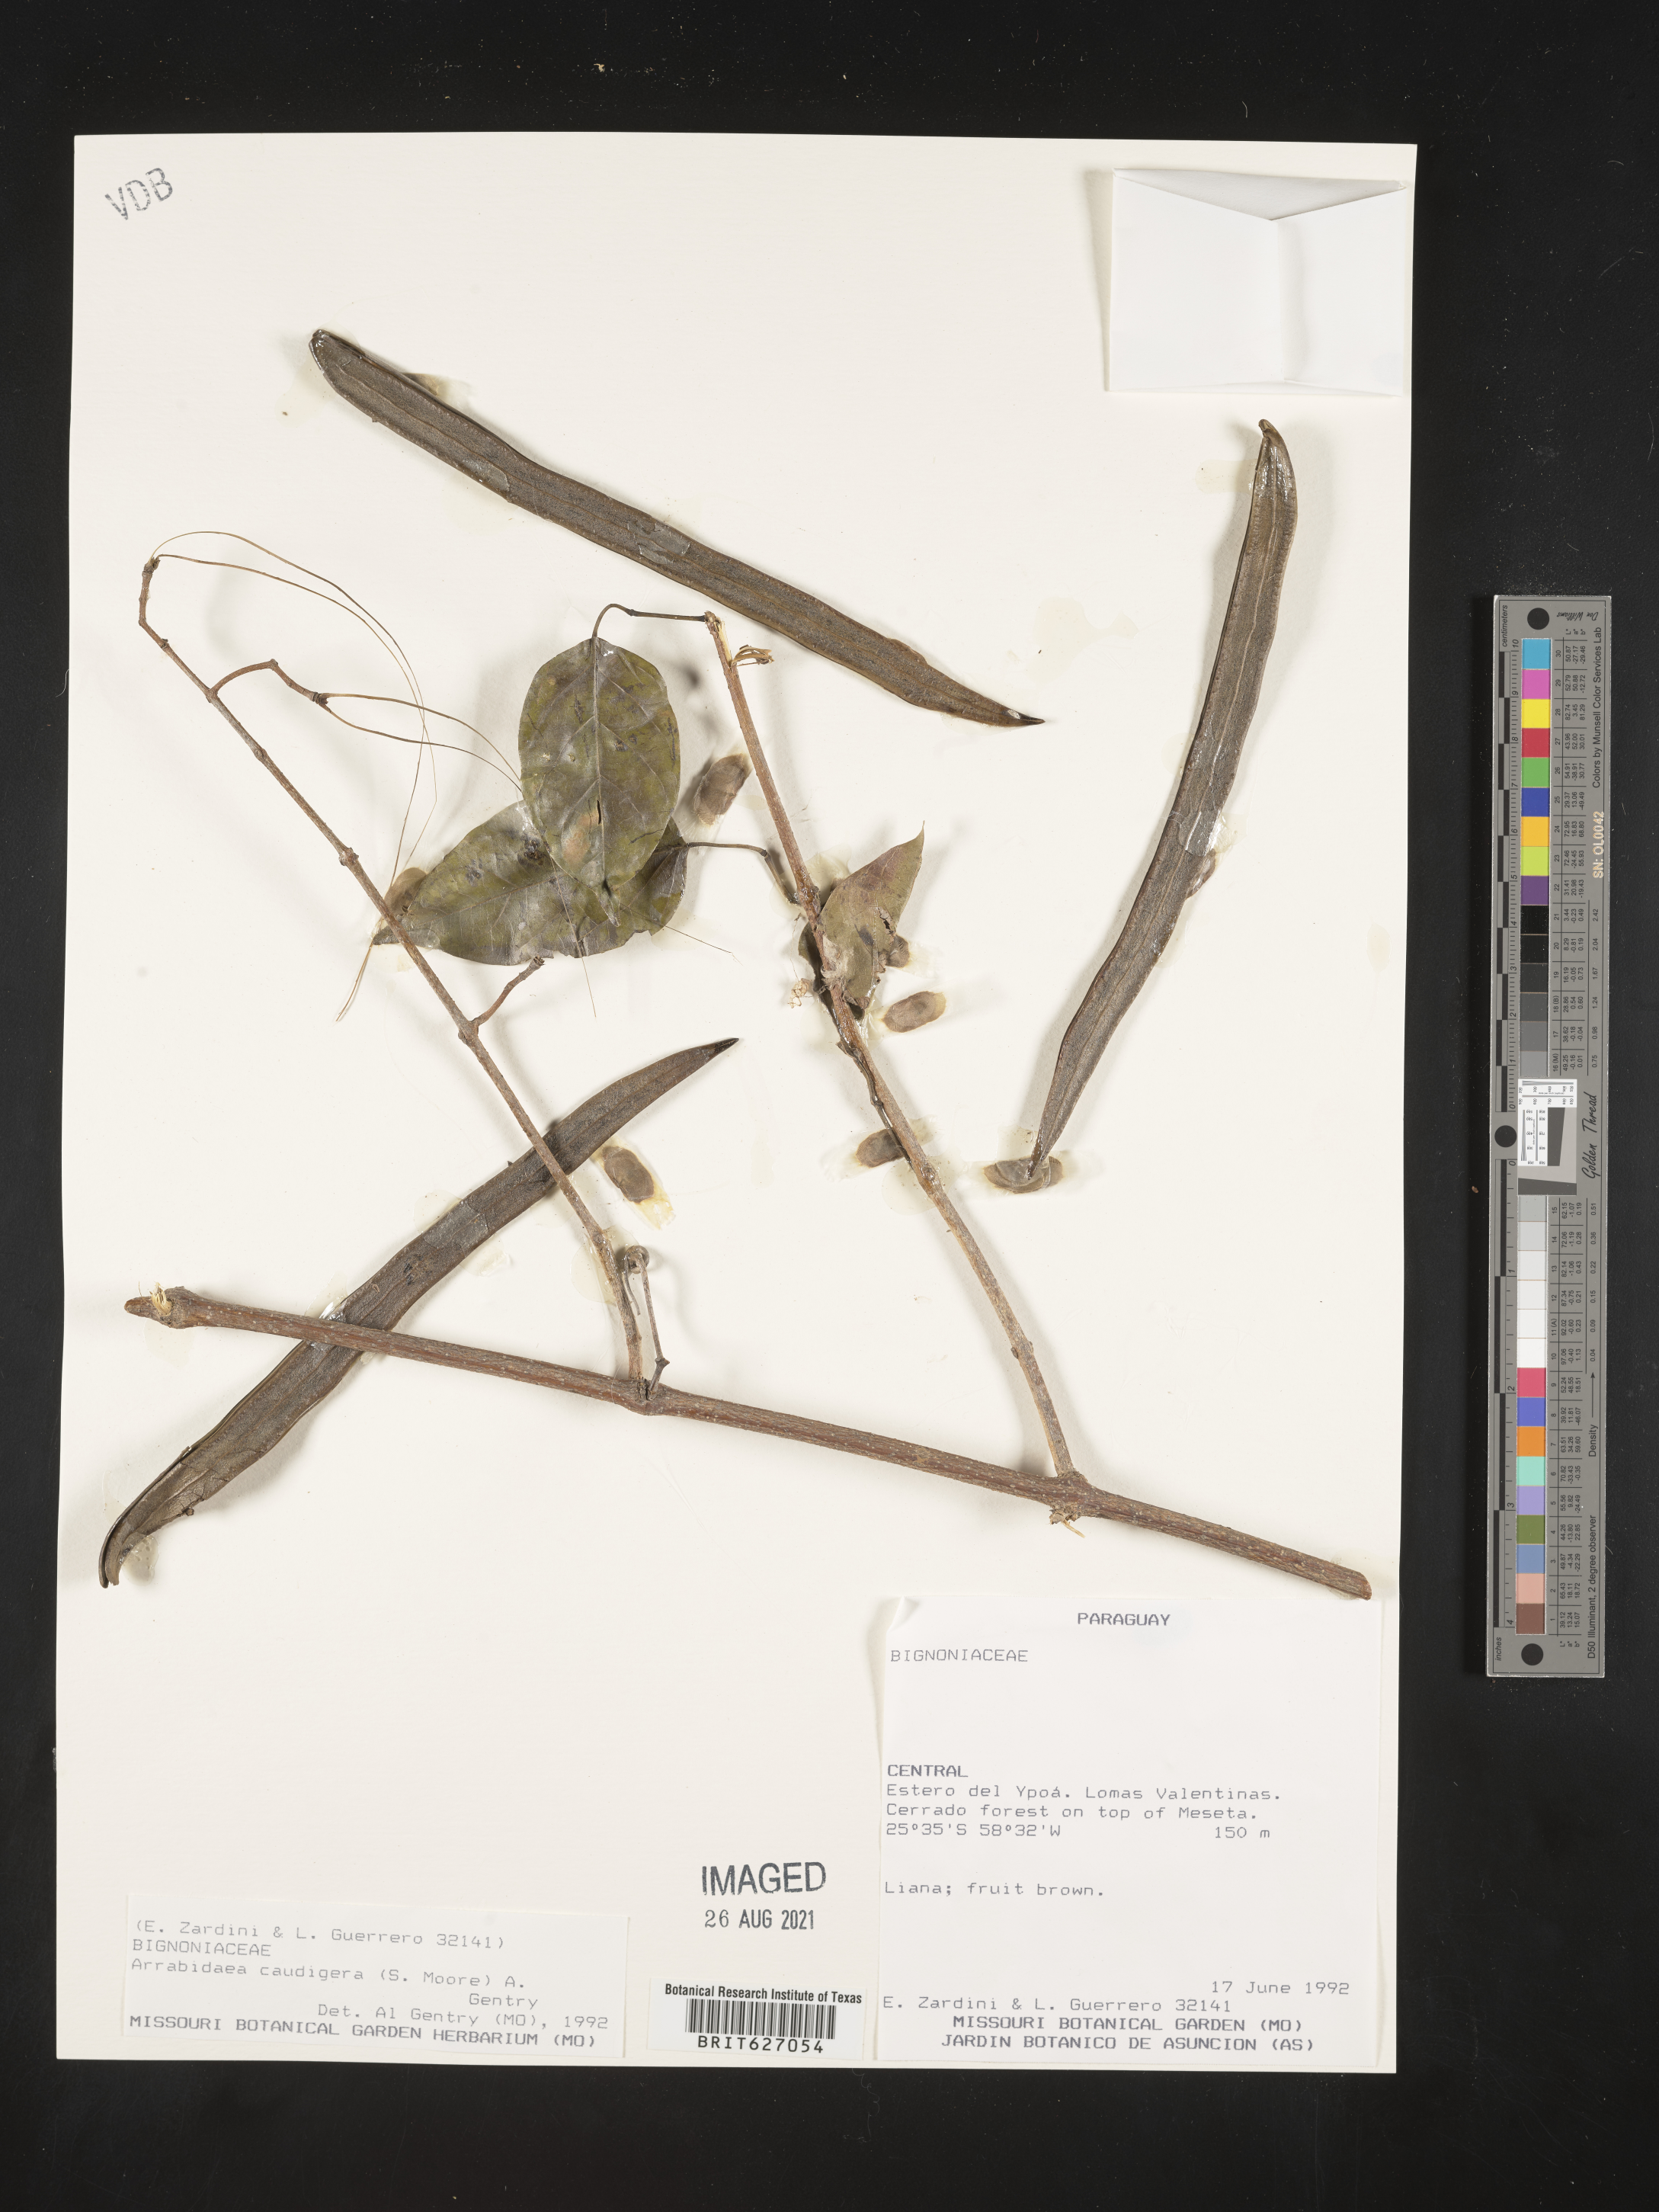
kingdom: Plantae
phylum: Tracheophyta
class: Magnoliopsida
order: Lamiales
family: Bignoniaceae
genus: Fridericia
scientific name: Fridericia caudigera
